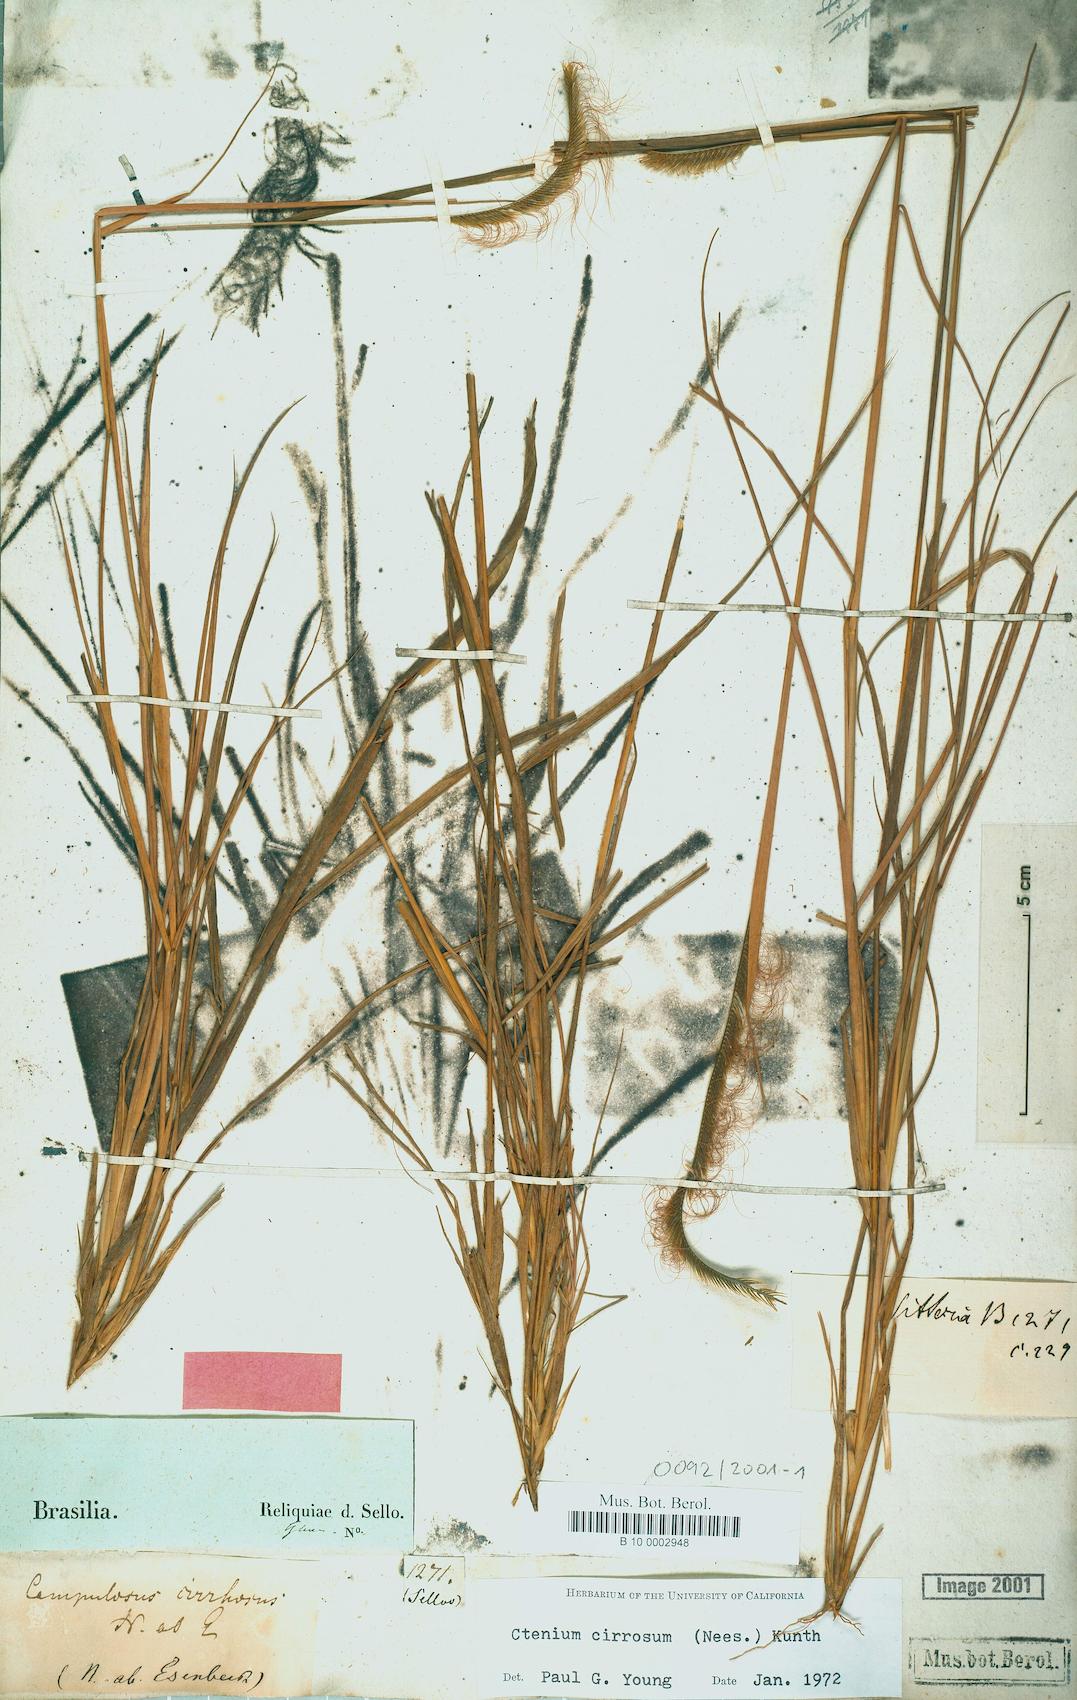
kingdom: Plantae
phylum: Tracheophyta
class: Liliopsida
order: Poales
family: Poaceae
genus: Ctenium
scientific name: Ctenium cirrhosum
